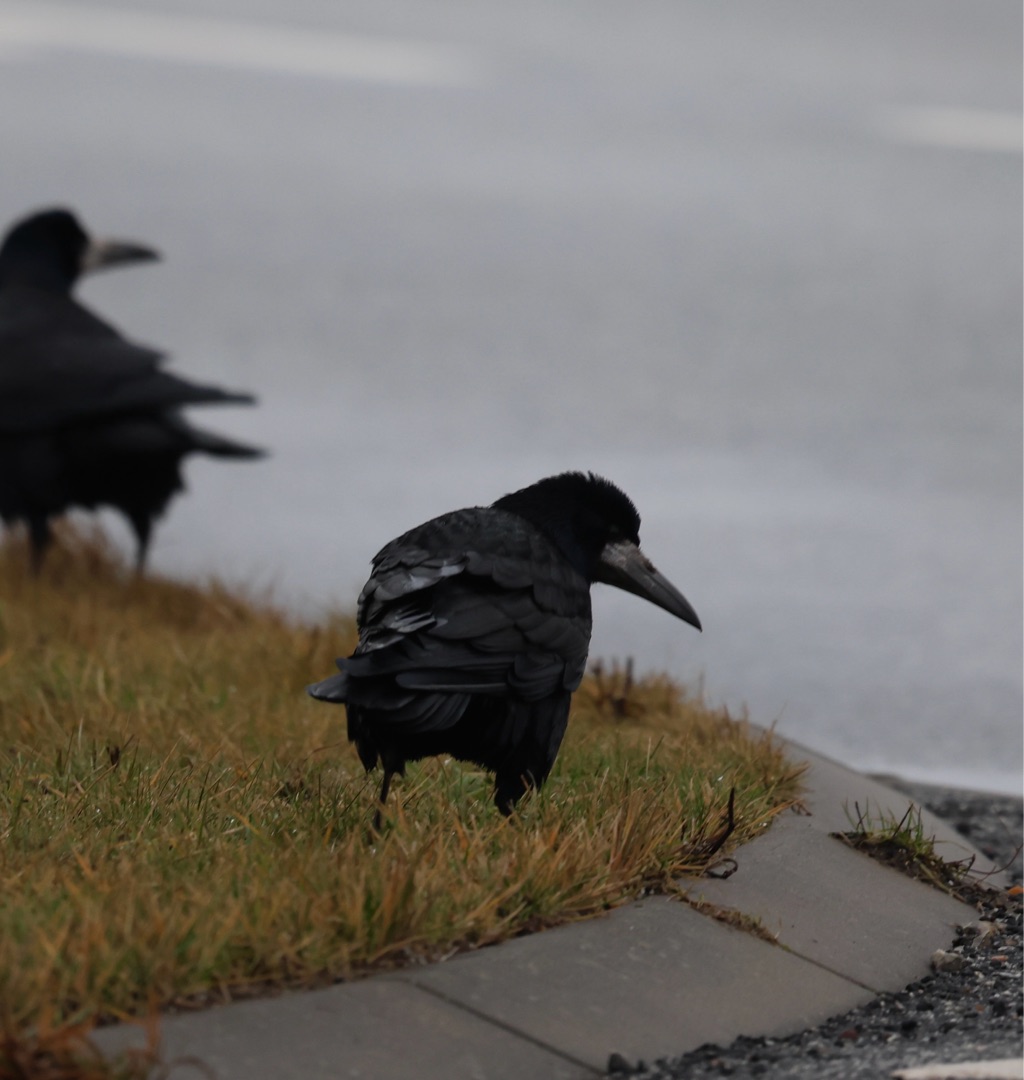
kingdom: Animalia
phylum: Chordata
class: Aves
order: Passeriformes
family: Corvidae
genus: Corvus
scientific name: Corvus frugilegus
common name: Råge
